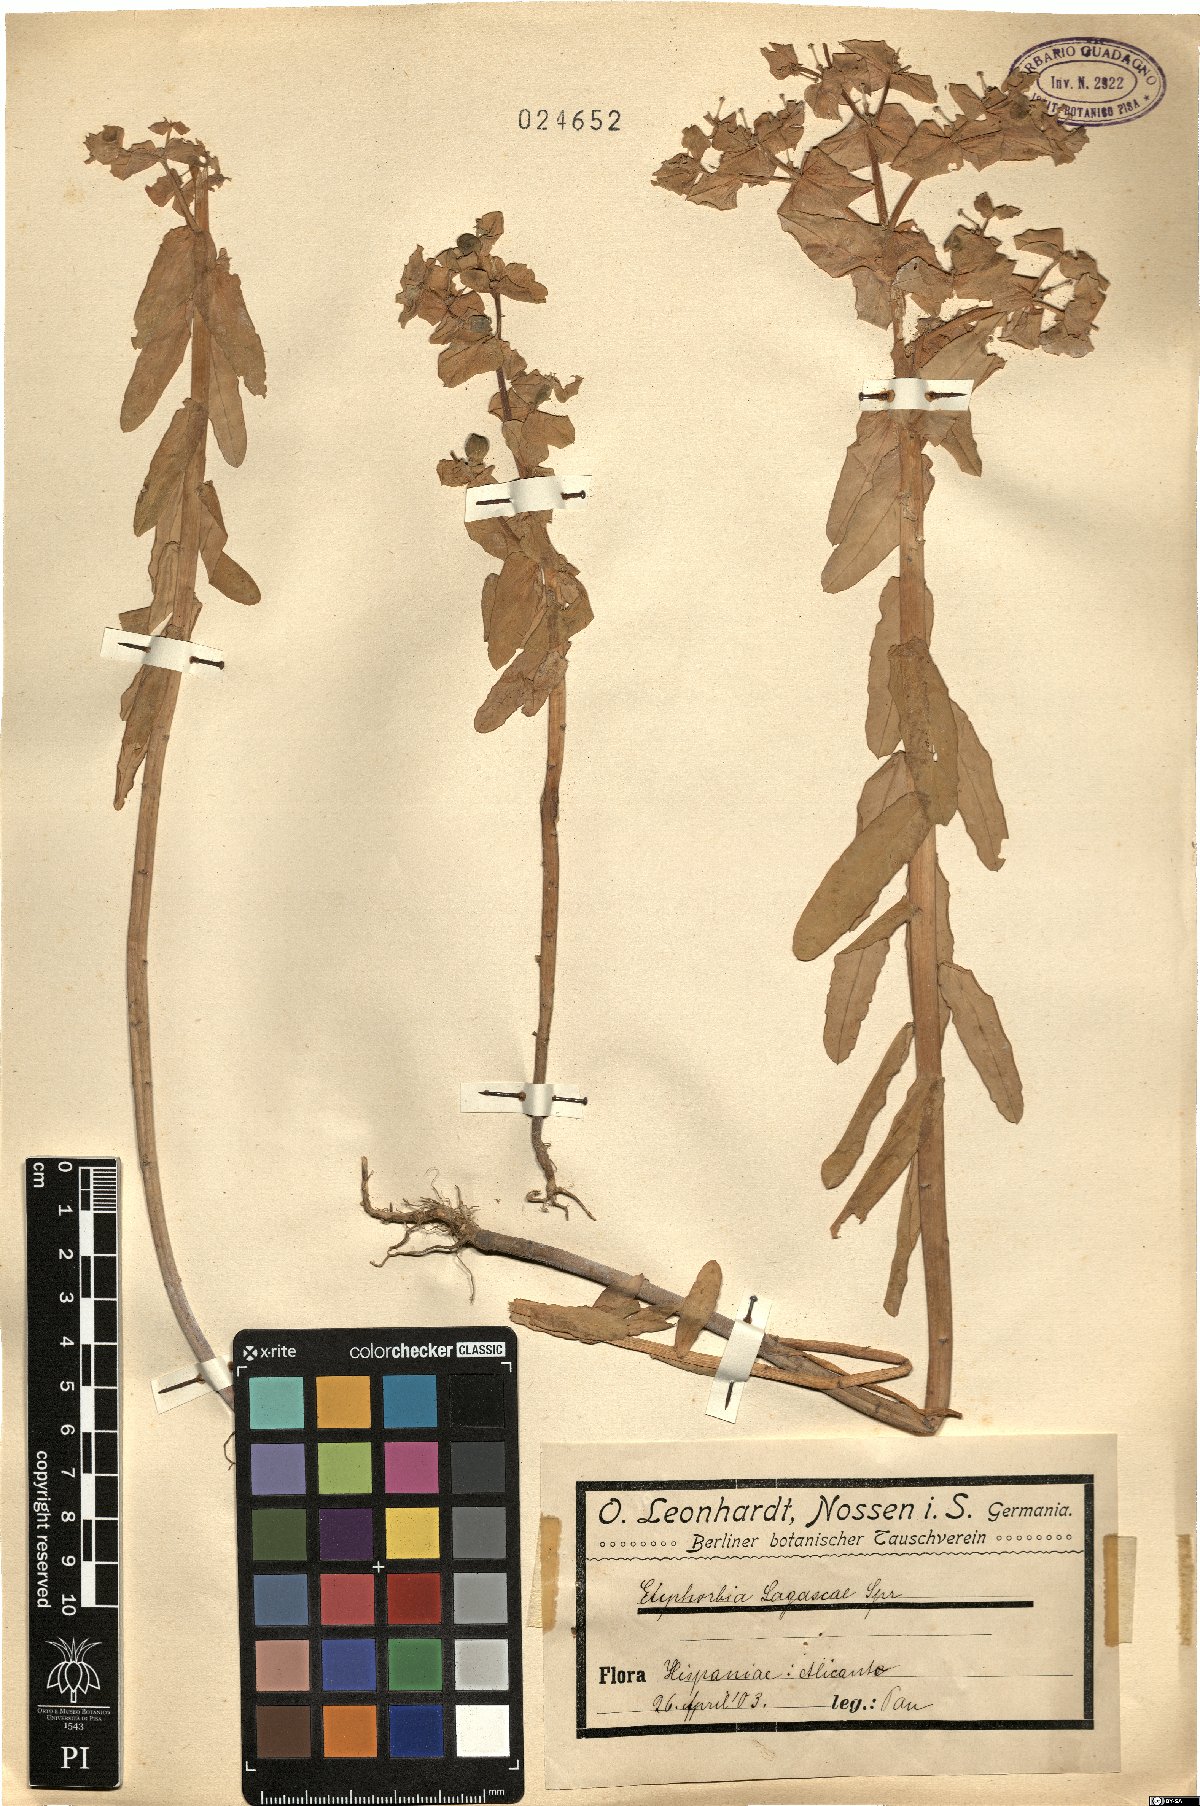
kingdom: Plantae
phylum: Tracheophyta
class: Magnoliopsida
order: Malpighiales
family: Euphorbiaceae
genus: Euphorbia
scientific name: Euphorbia lagascae
